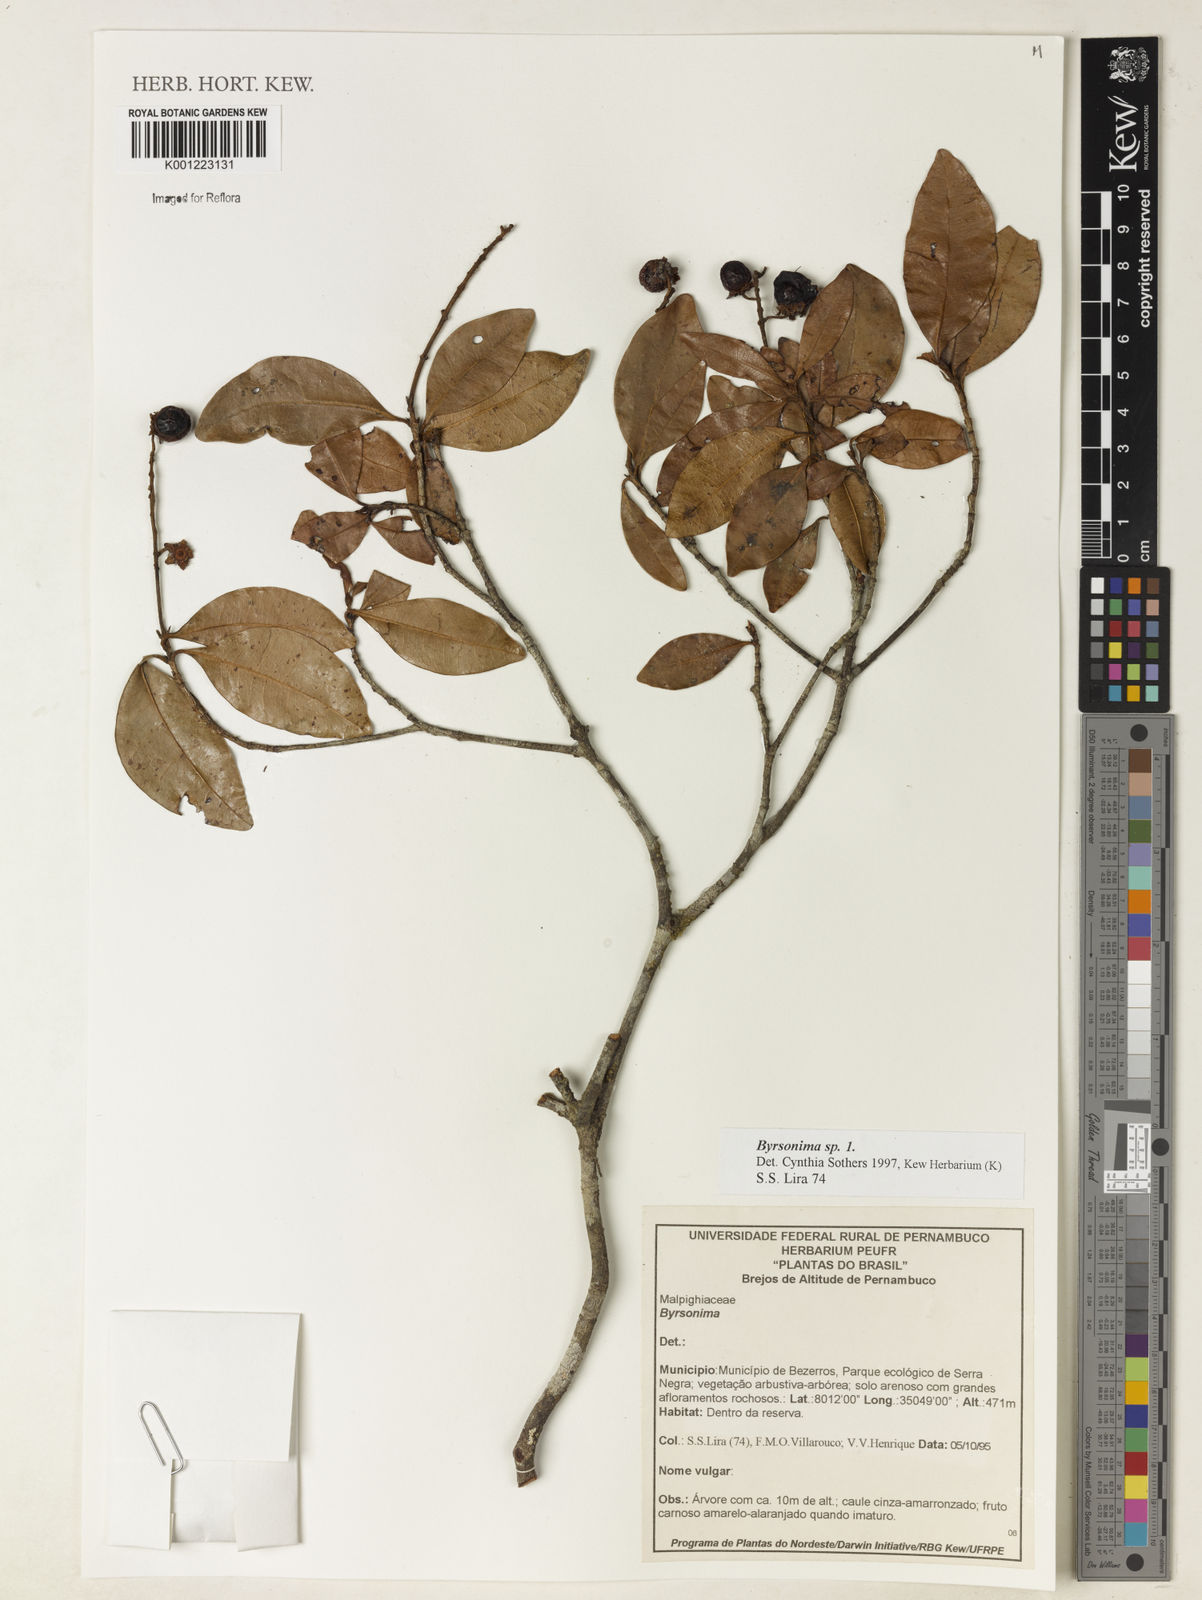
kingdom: Plantae
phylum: Tracheophyta
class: Magnoliopsida
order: Malpighiales
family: Malpighiaceae
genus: Byrsonima
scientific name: Byrsonima
